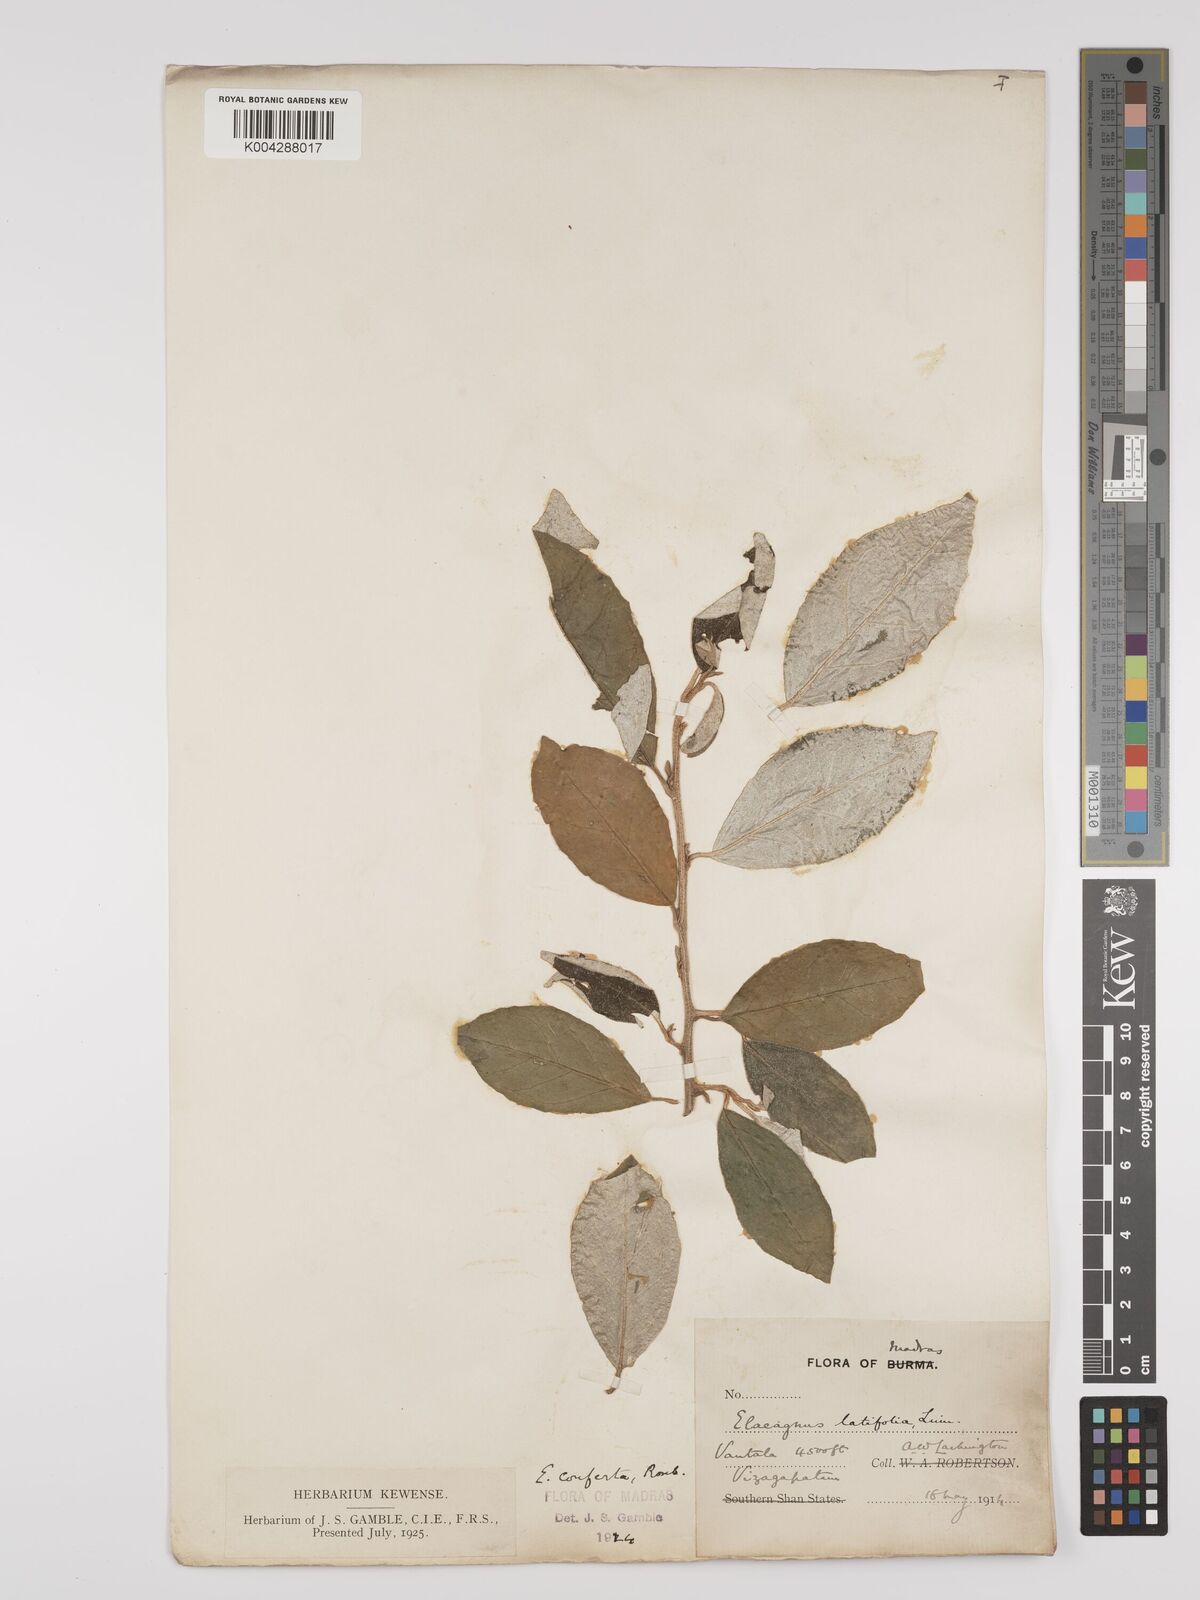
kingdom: Plantae
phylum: Tracheophyta
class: Magnoliopsida
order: Rosales
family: Elaeagnaceae
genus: Elaeagnus
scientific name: Elaeagnus latifolia
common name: Oleaster
